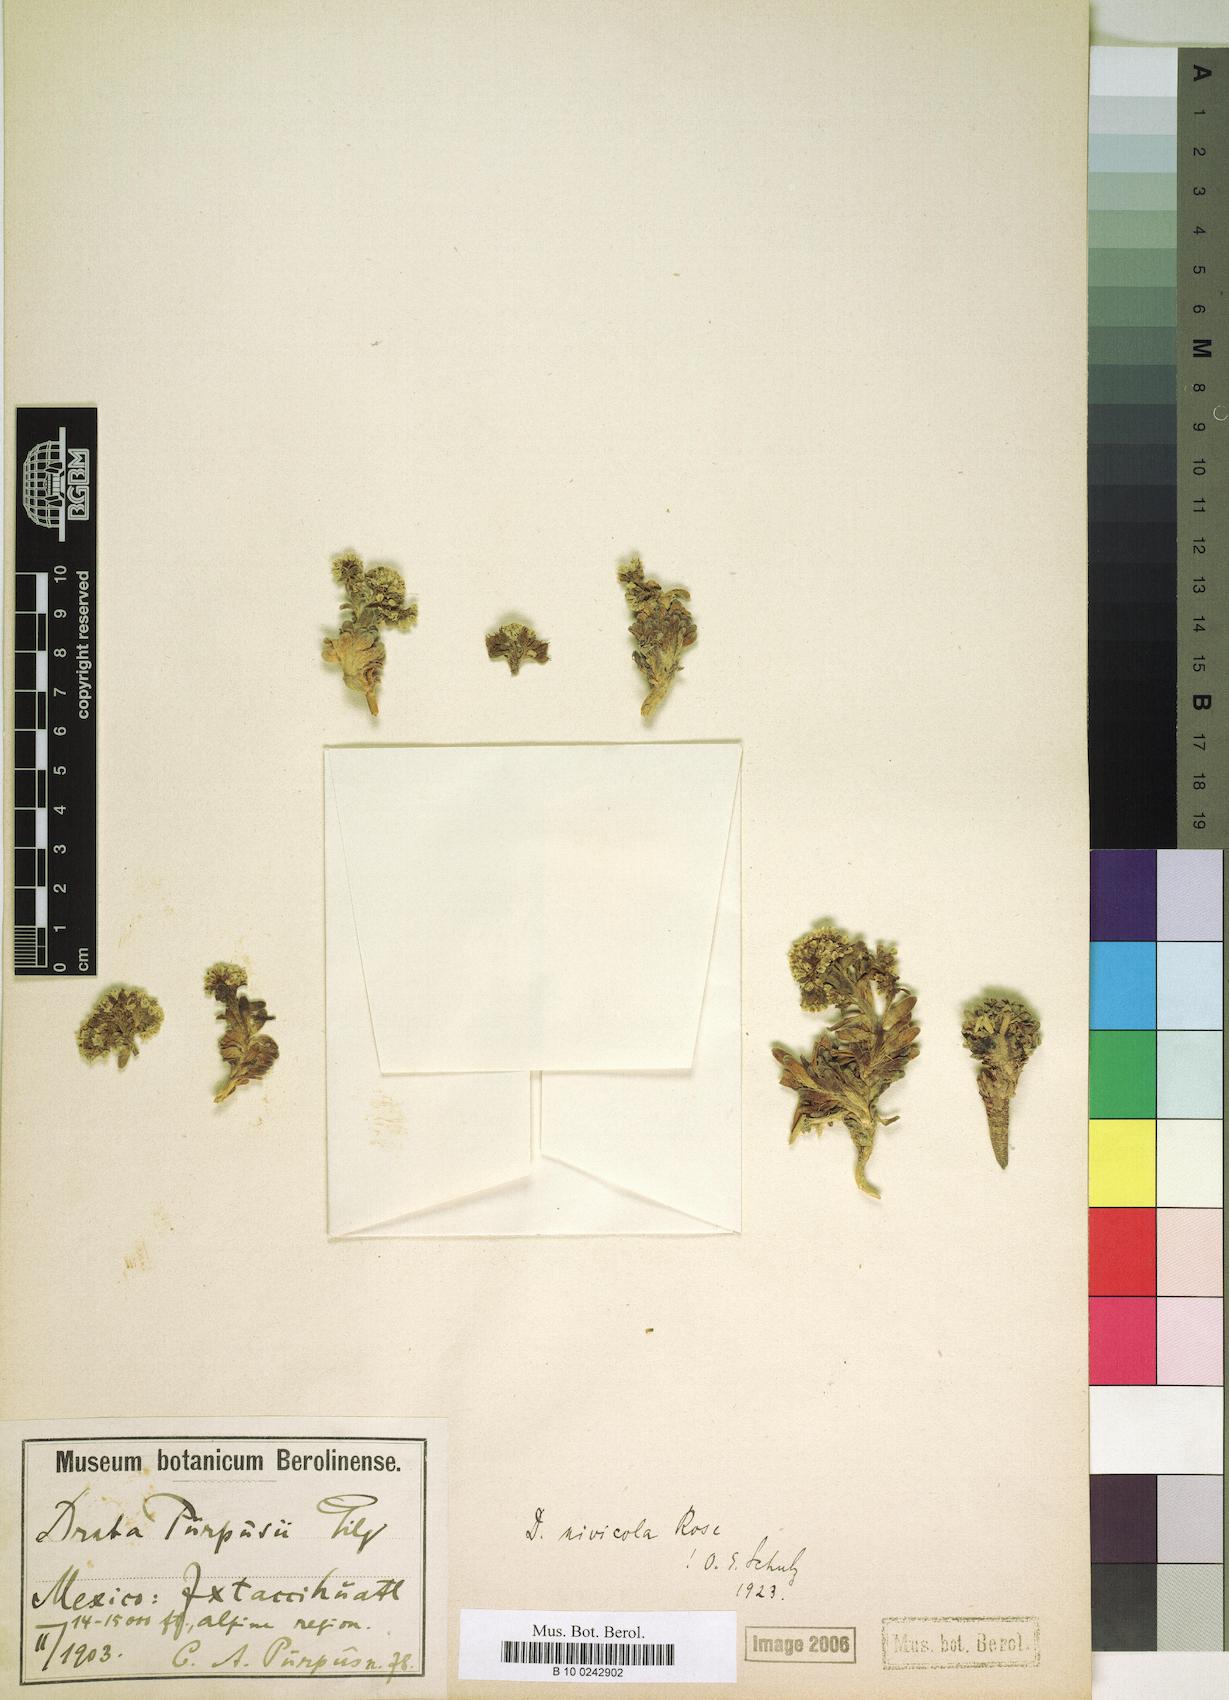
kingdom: Plantae
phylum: Tracheophyta
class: Magnoliopsida
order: Brassicales
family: Brassicaceae
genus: Draba
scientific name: Draba nivicola
